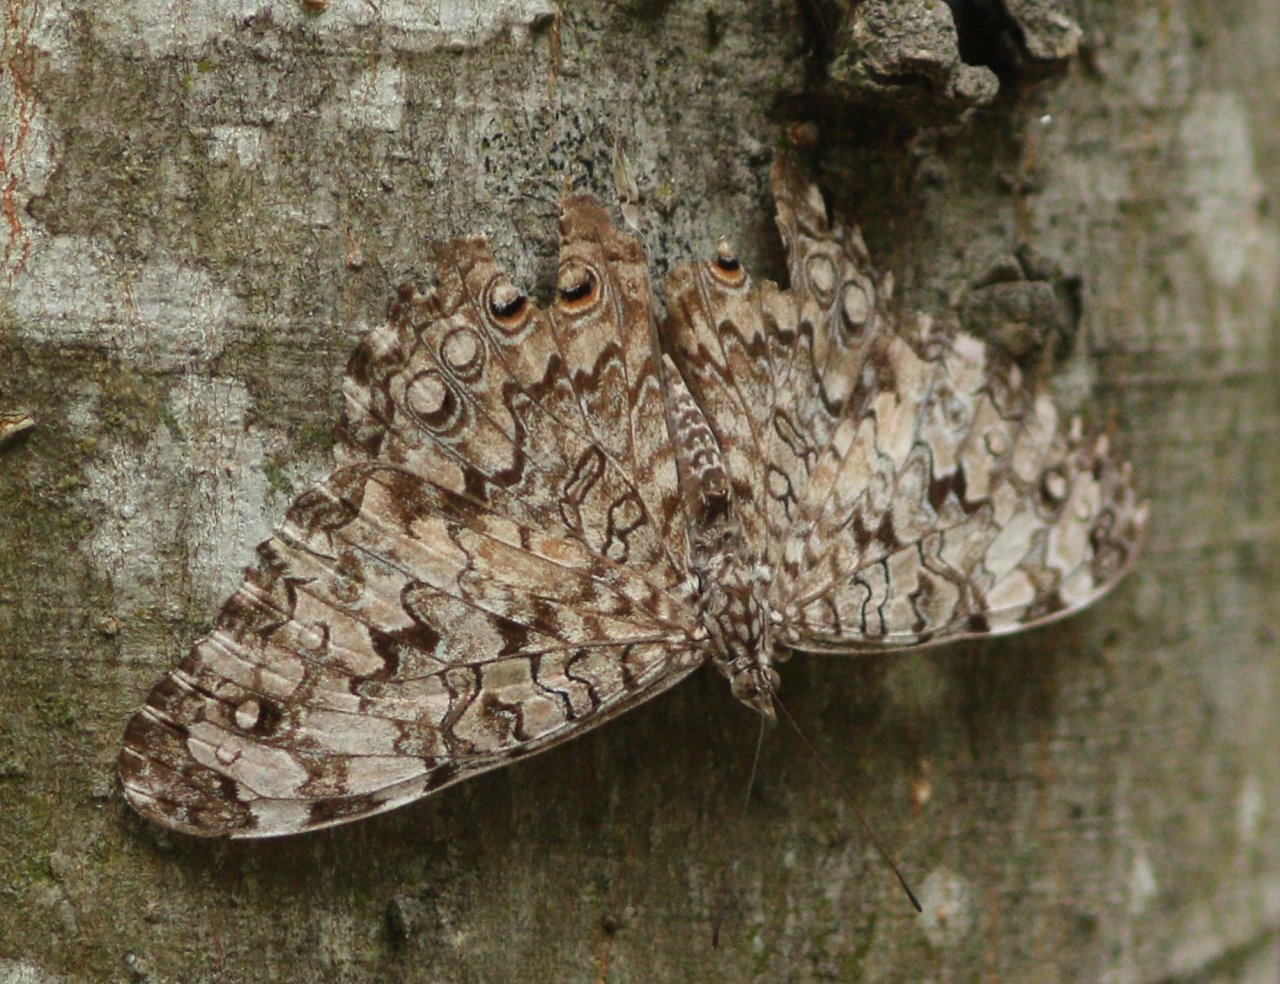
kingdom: Animalia
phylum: Arthropoda
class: Insecta
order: Lepidoptera
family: Nymphalidae
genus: Hamadryas
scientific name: Hamadryas februa
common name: Gray Cracker
